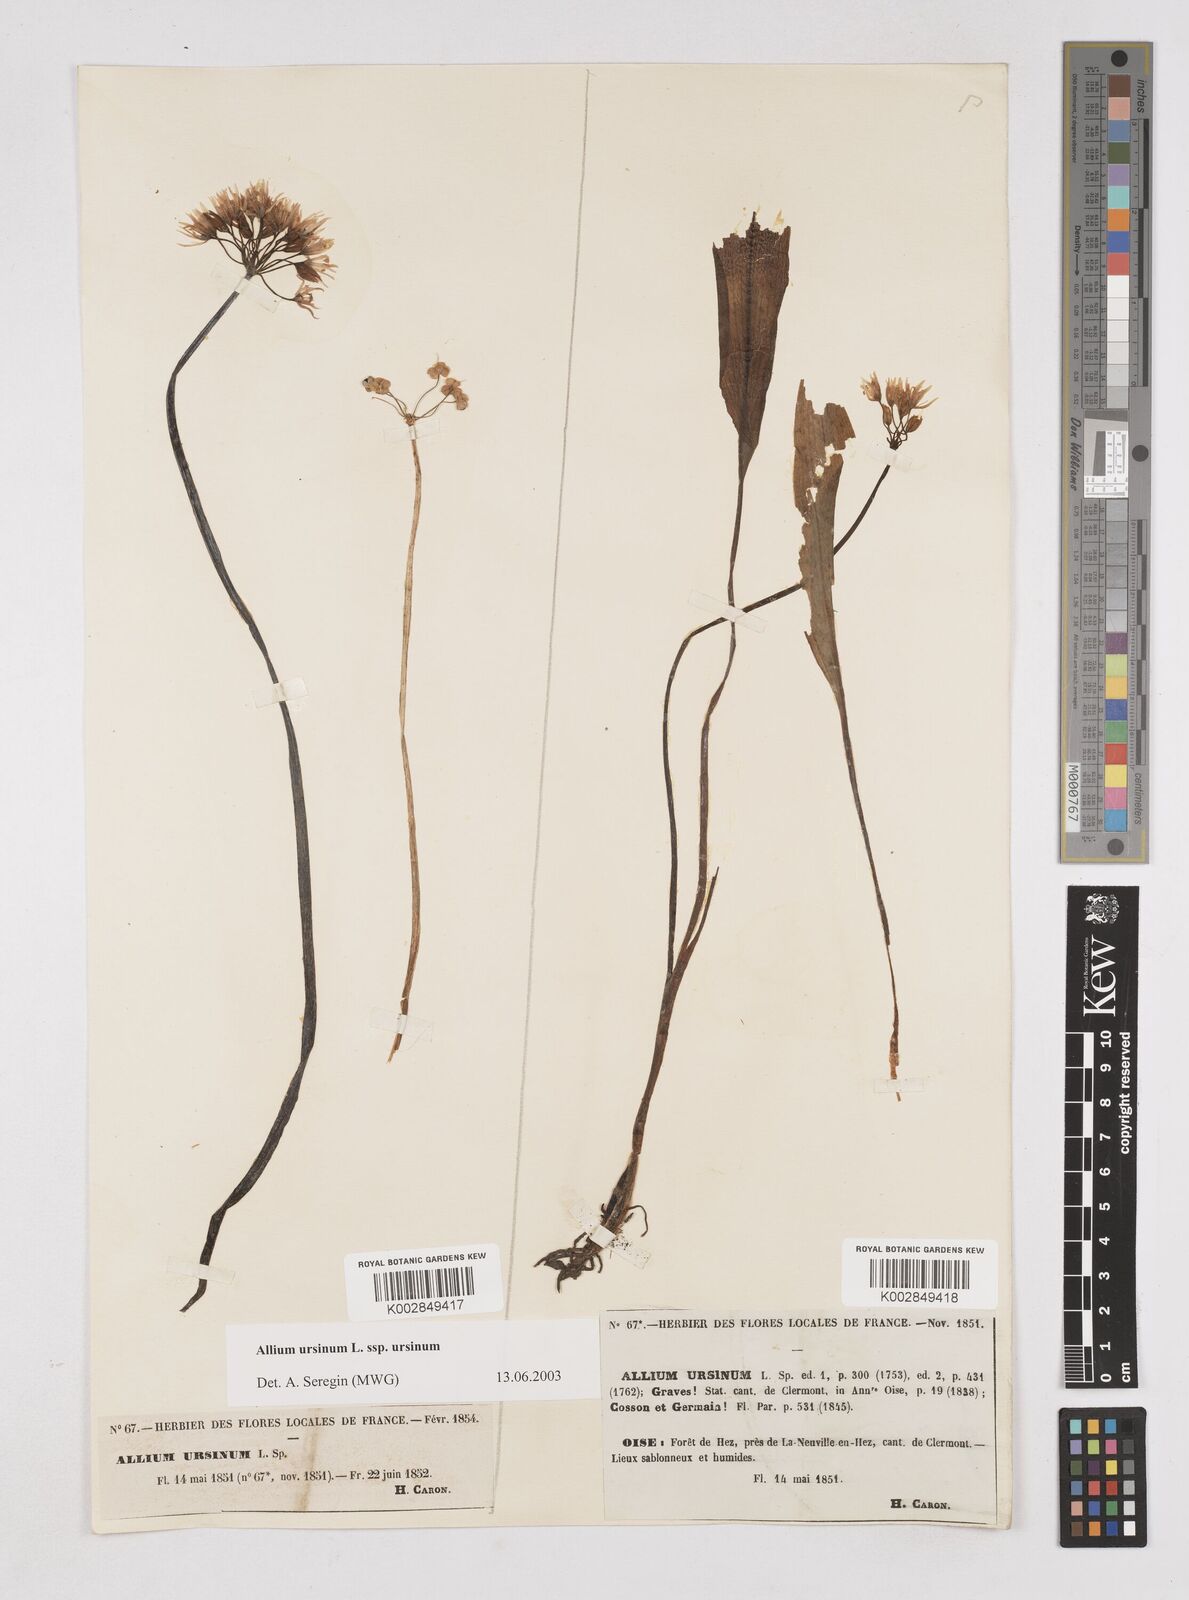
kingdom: Plantae
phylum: Tracheophyta
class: Liliopsida
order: Asparagales
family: Amaryllidaceae
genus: Allium
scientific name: Allium ursinum
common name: Ramsons
